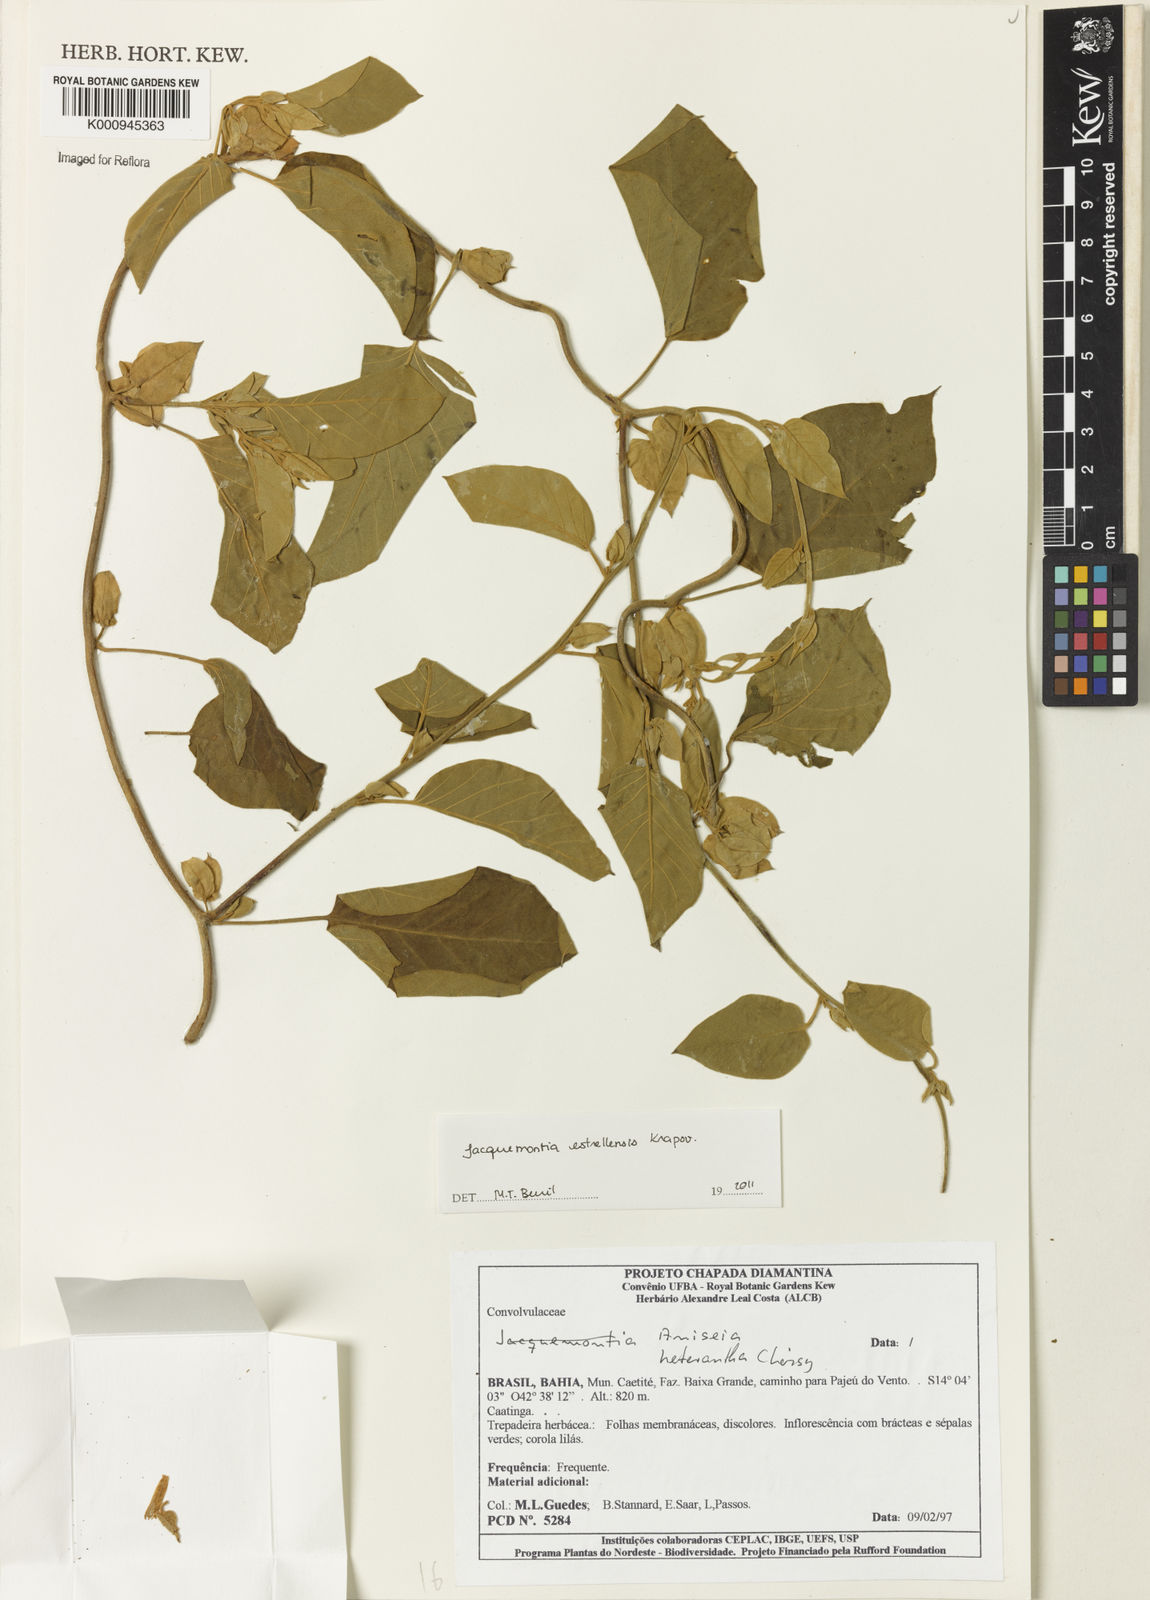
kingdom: Plantae
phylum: Tracheophyta
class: Magnoliopsida
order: Solanales
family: Convolvulaceae
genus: Jacquemontia
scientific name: Jacquemontia
